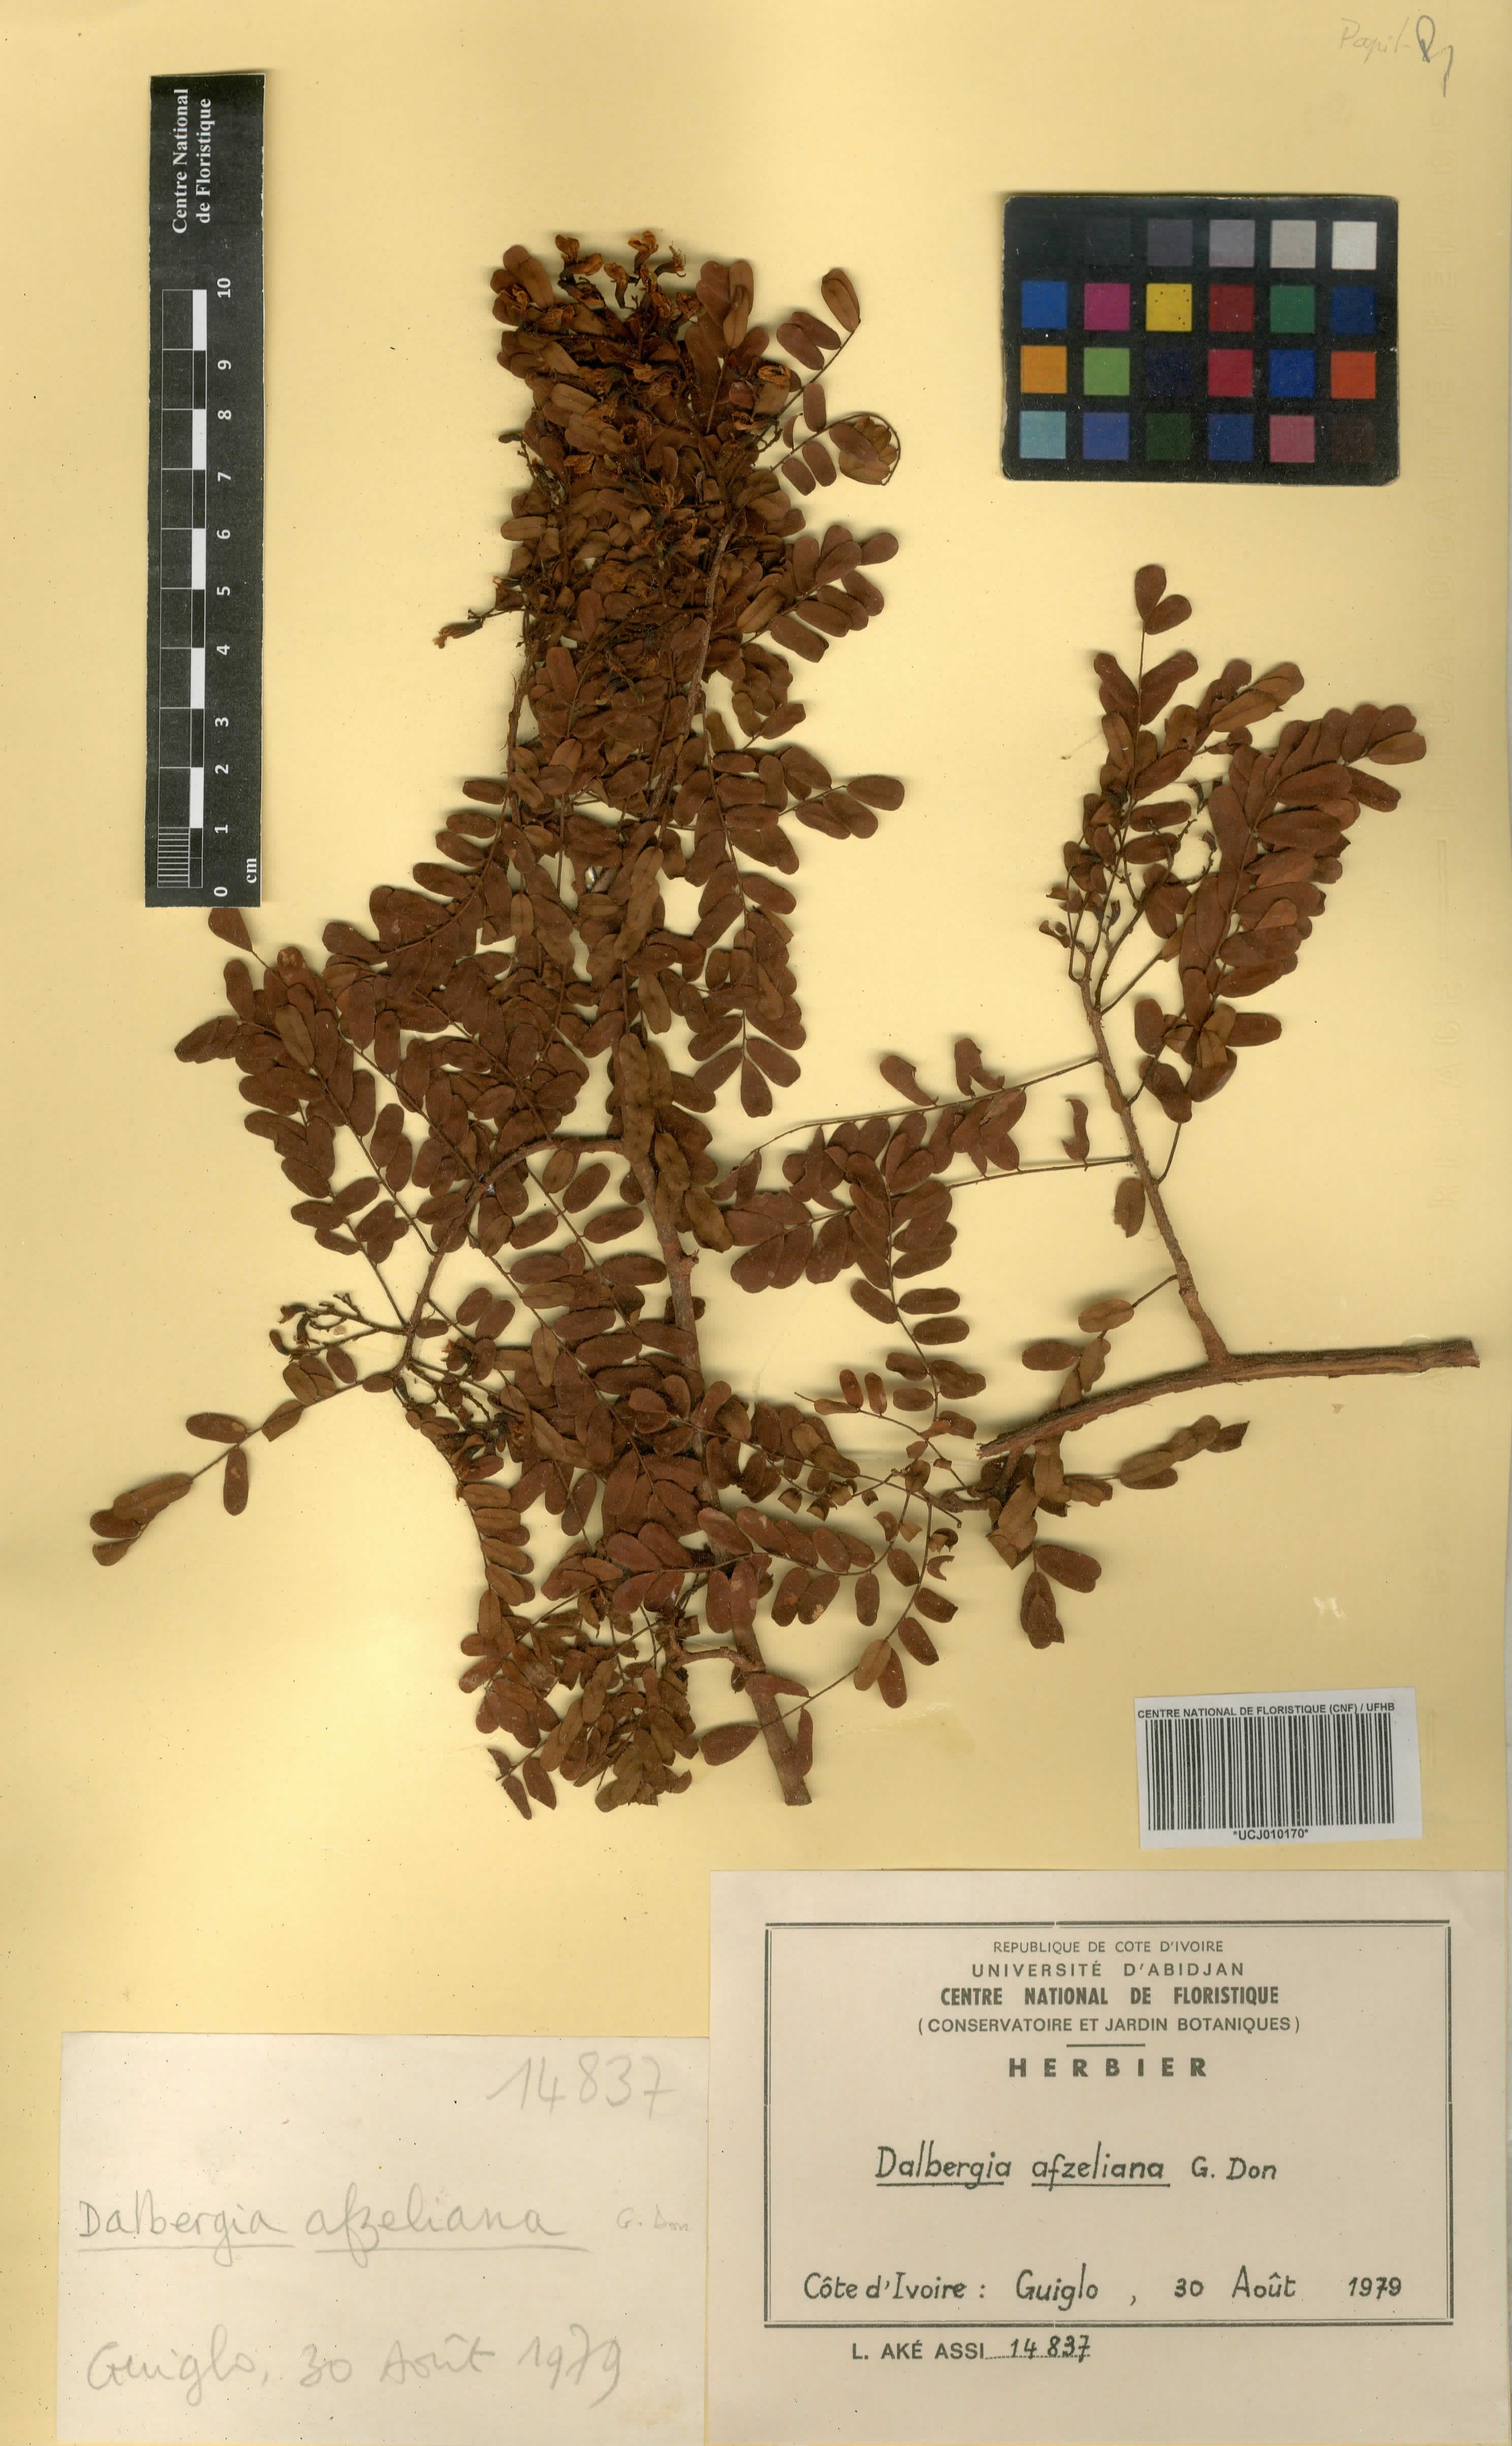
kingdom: Plantae
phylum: Tracheophyta
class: Magnoliopsida
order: Fabales
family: Fabaceae
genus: Dalbergia
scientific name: Dalbergia afzeliana
